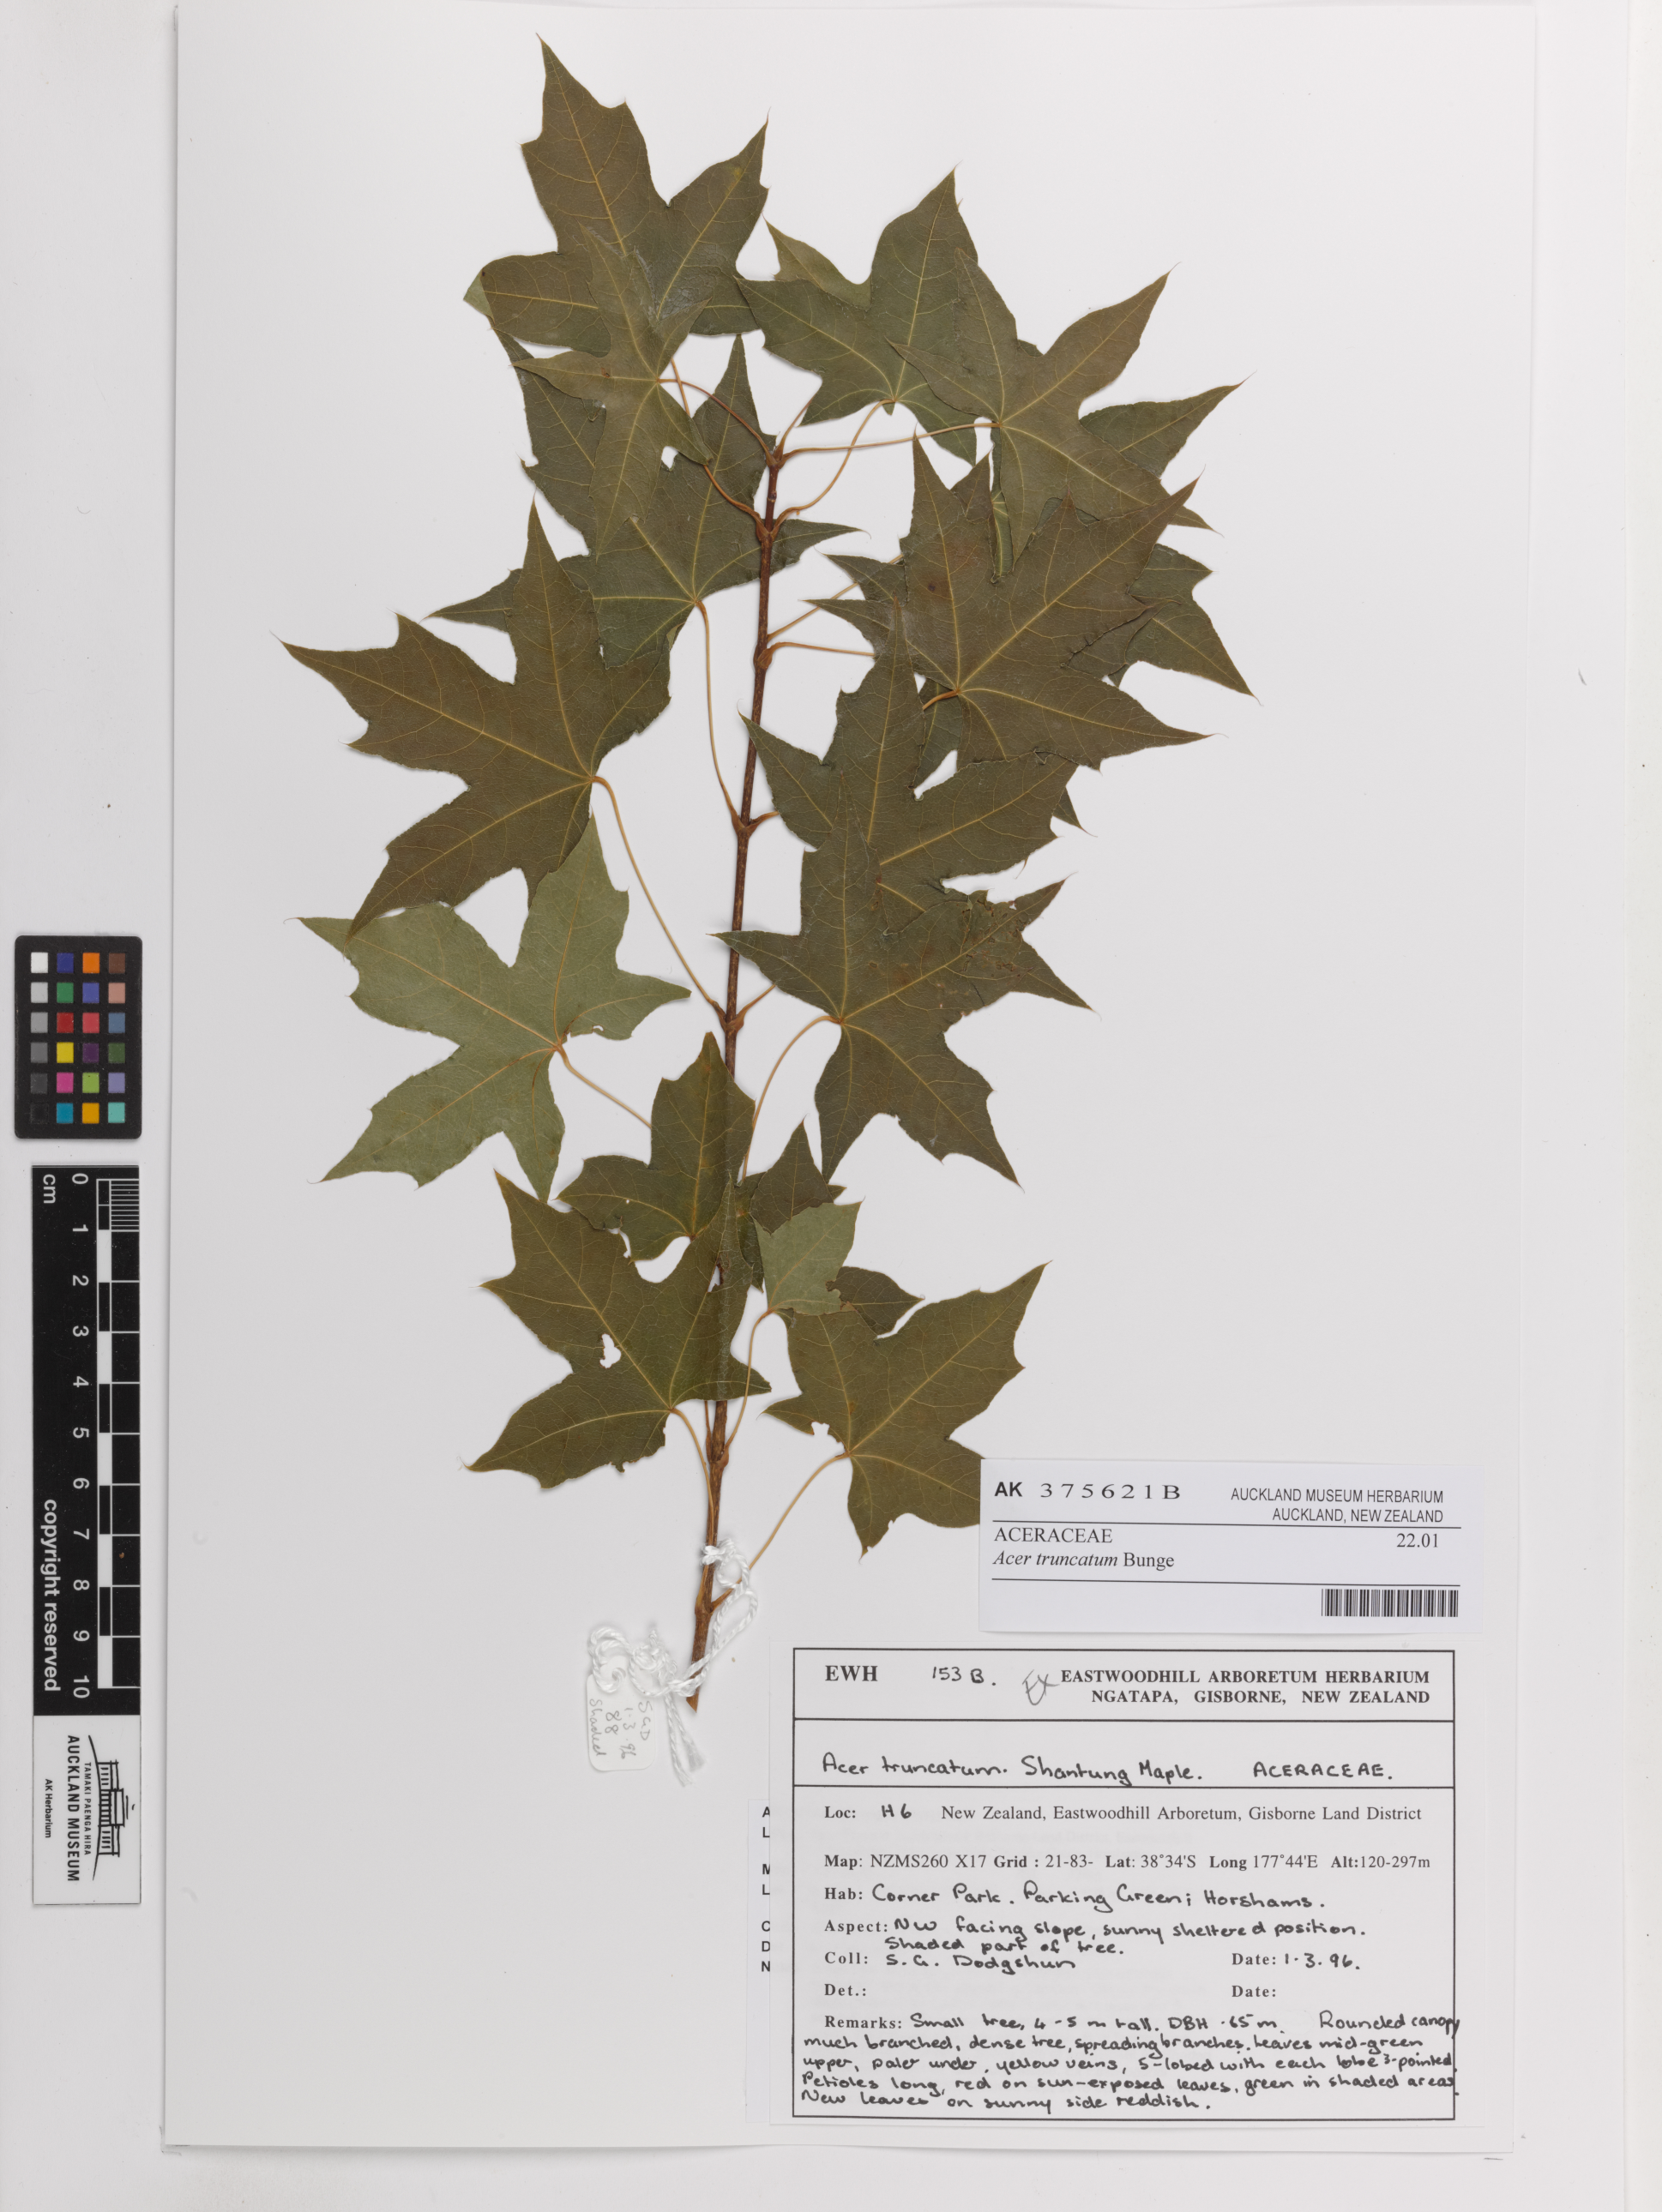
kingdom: Plantae
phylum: Tracheophyta
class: Magnoliopsida
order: Sapindales
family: Sapindaceae
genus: Acer
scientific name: Acer truncatum
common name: Shantung maple
